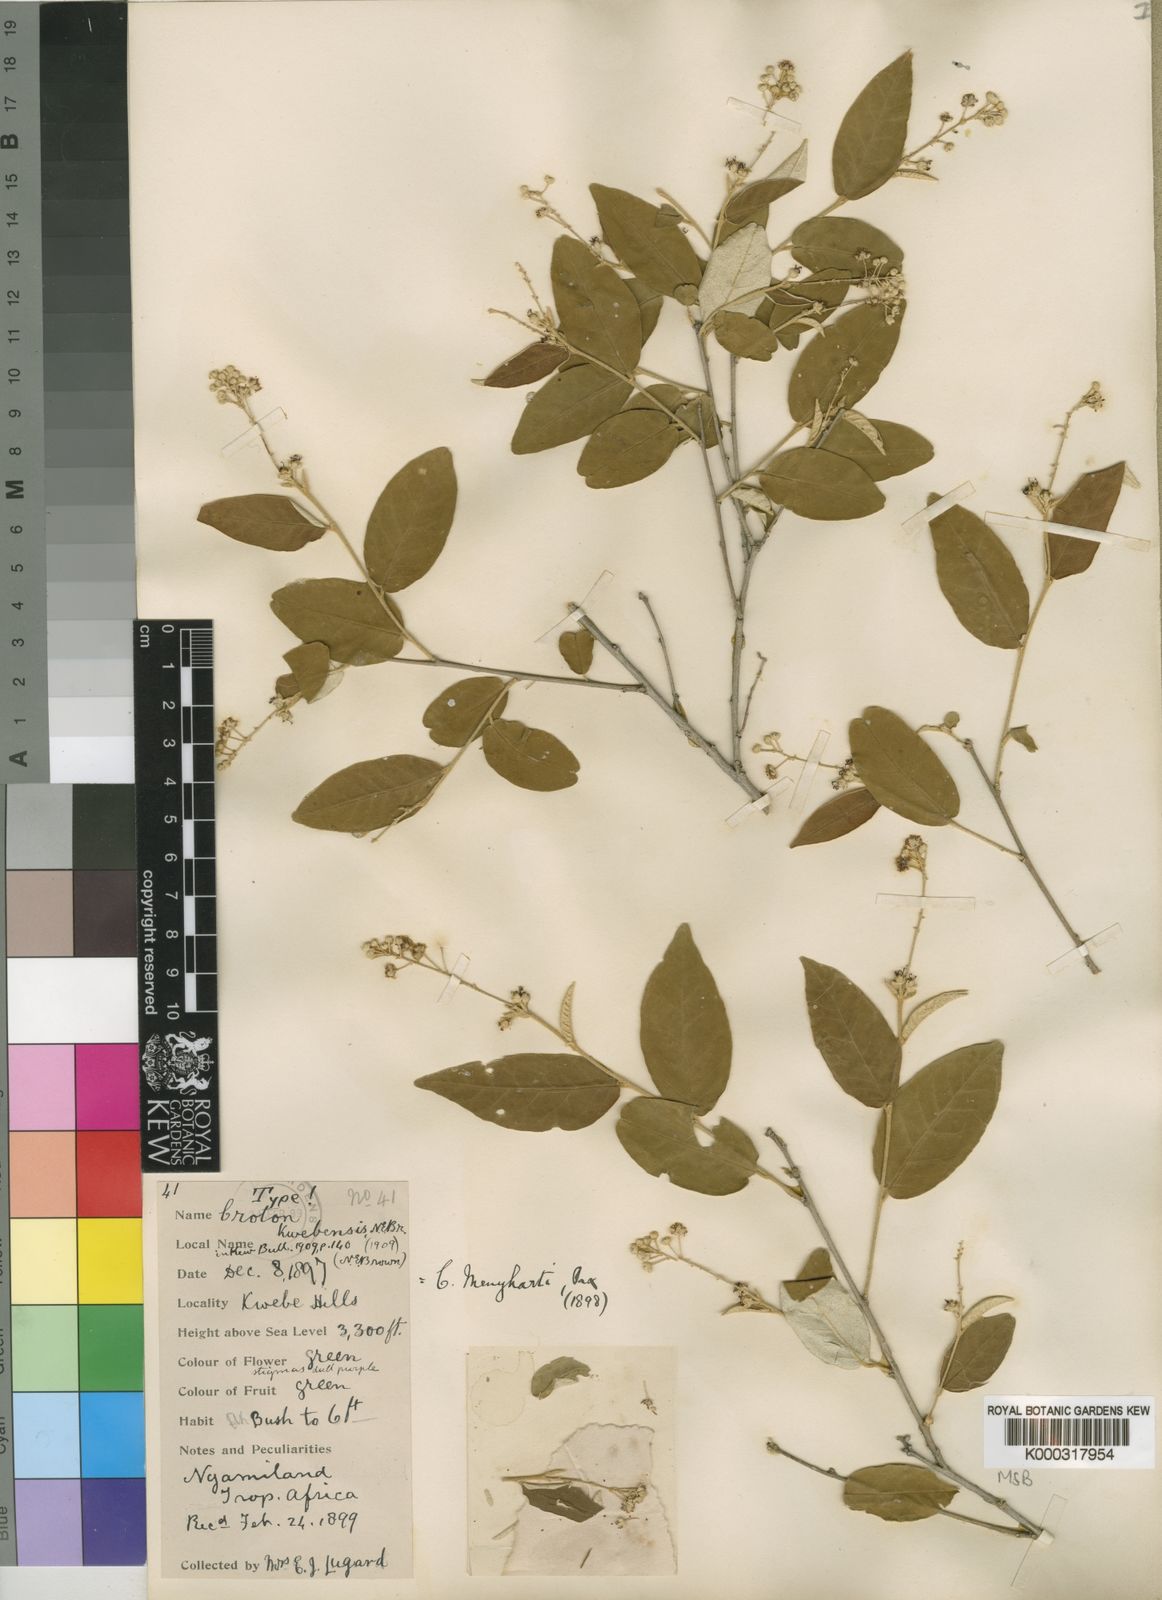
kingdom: Plantae
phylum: Tracheophyta
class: Magnoliopsida
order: Malpighiales
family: Euphorbiaceae
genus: Croton
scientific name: Croton menyharthii
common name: Rough-leaved croton
